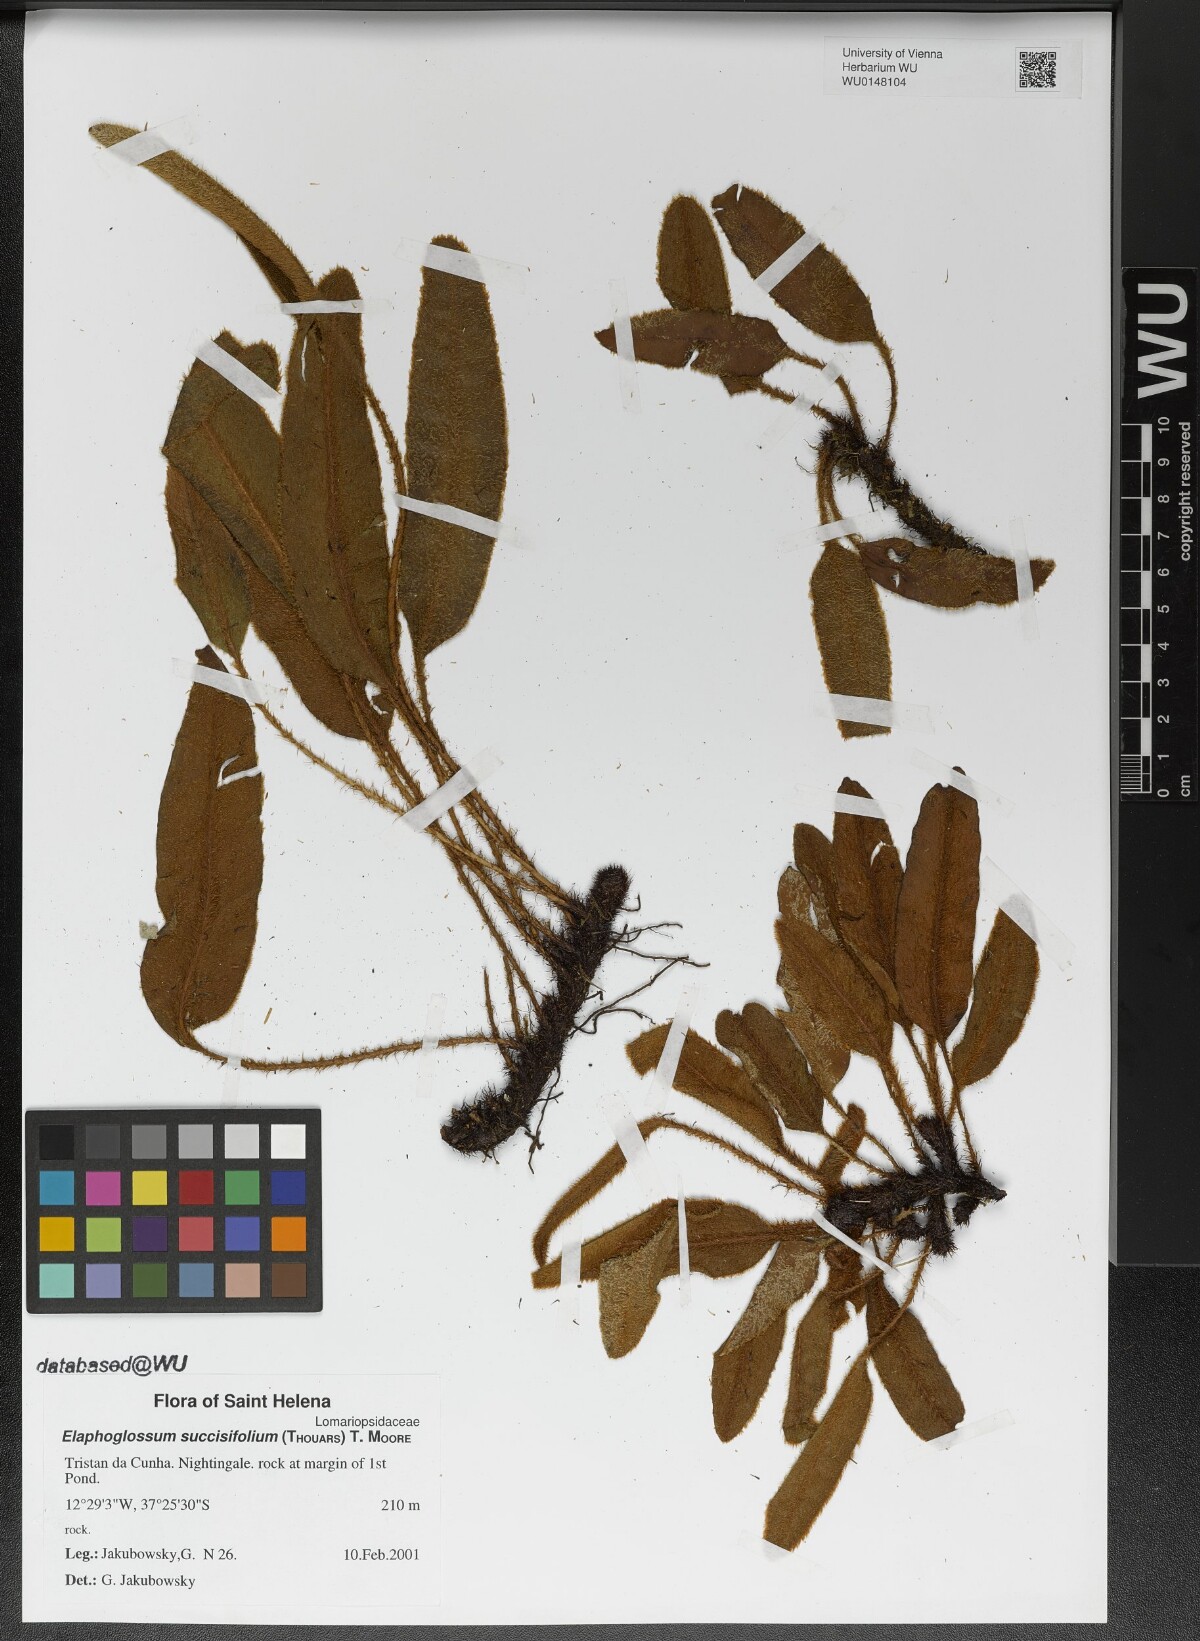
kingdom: Plantae
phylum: Tracheophyta
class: Polypodiopsida
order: Polypodiales
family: Dryopteridaceae
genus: Elaphoglossum
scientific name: Elaphoglossum succisifolium
